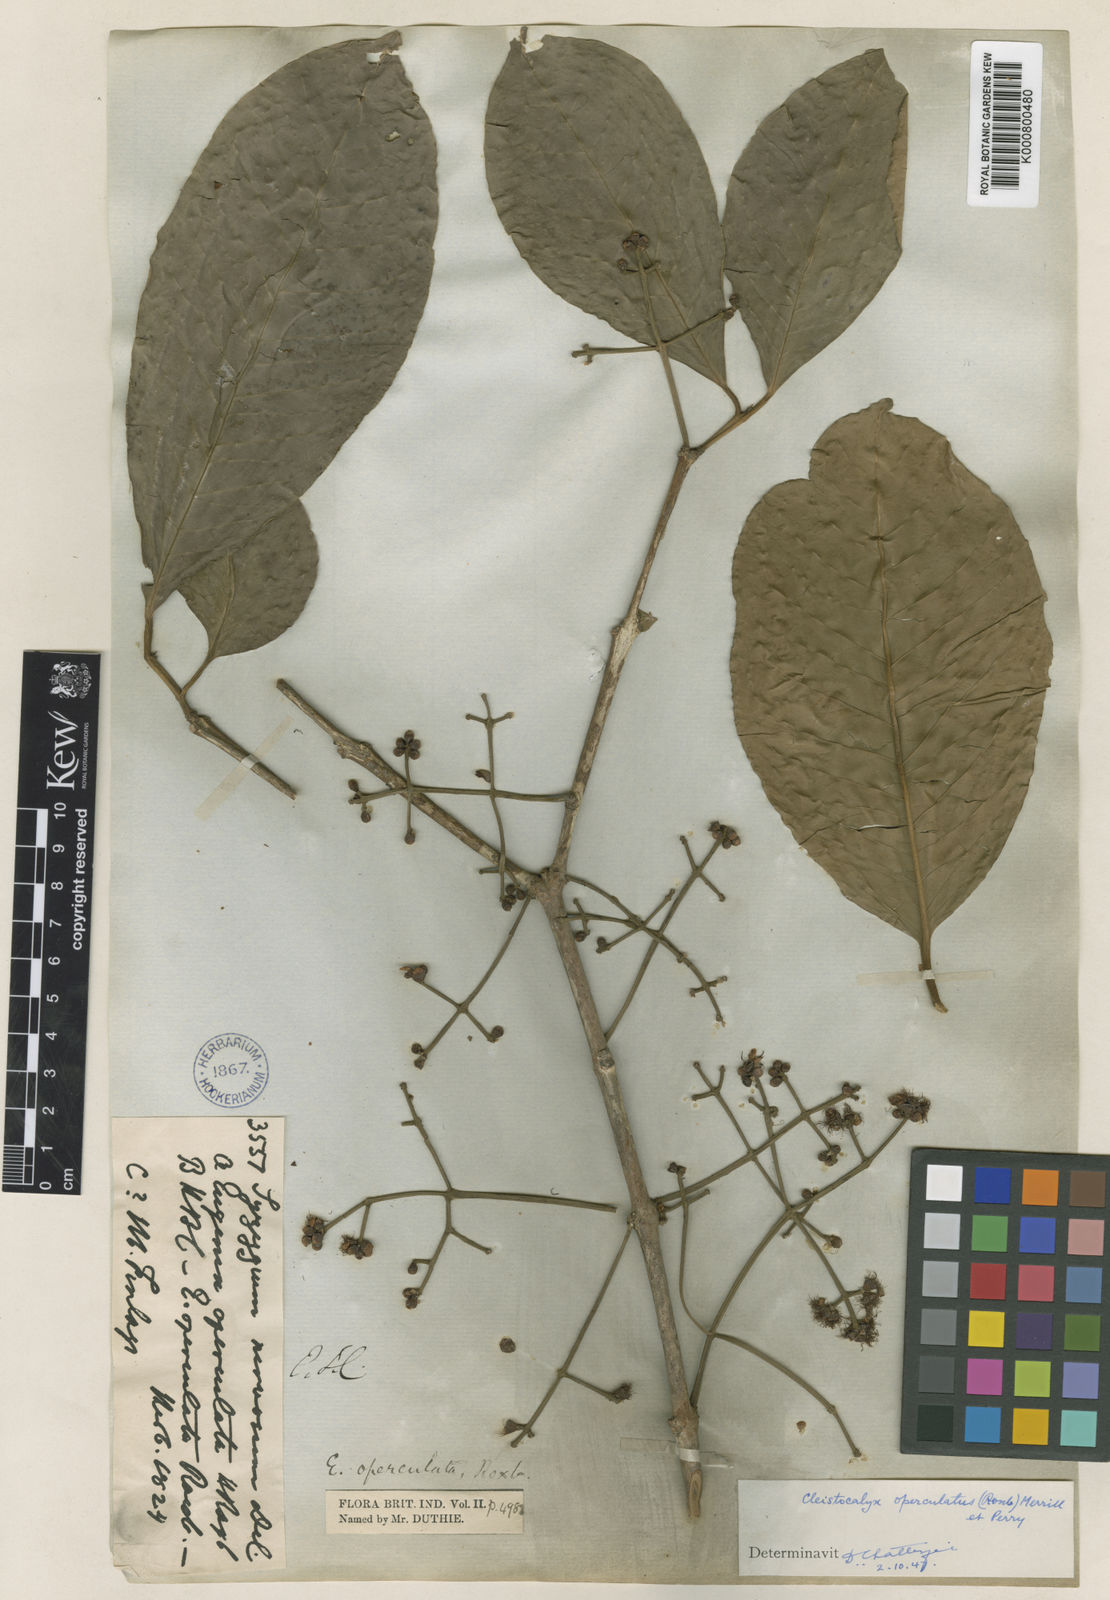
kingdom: Plantae
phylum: Tracheophyta
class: Magnoliopsida
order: Myrtales
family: Myrtaceae
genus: Syzygium
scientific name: Syzygium nervosum
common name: Daly river satinash
